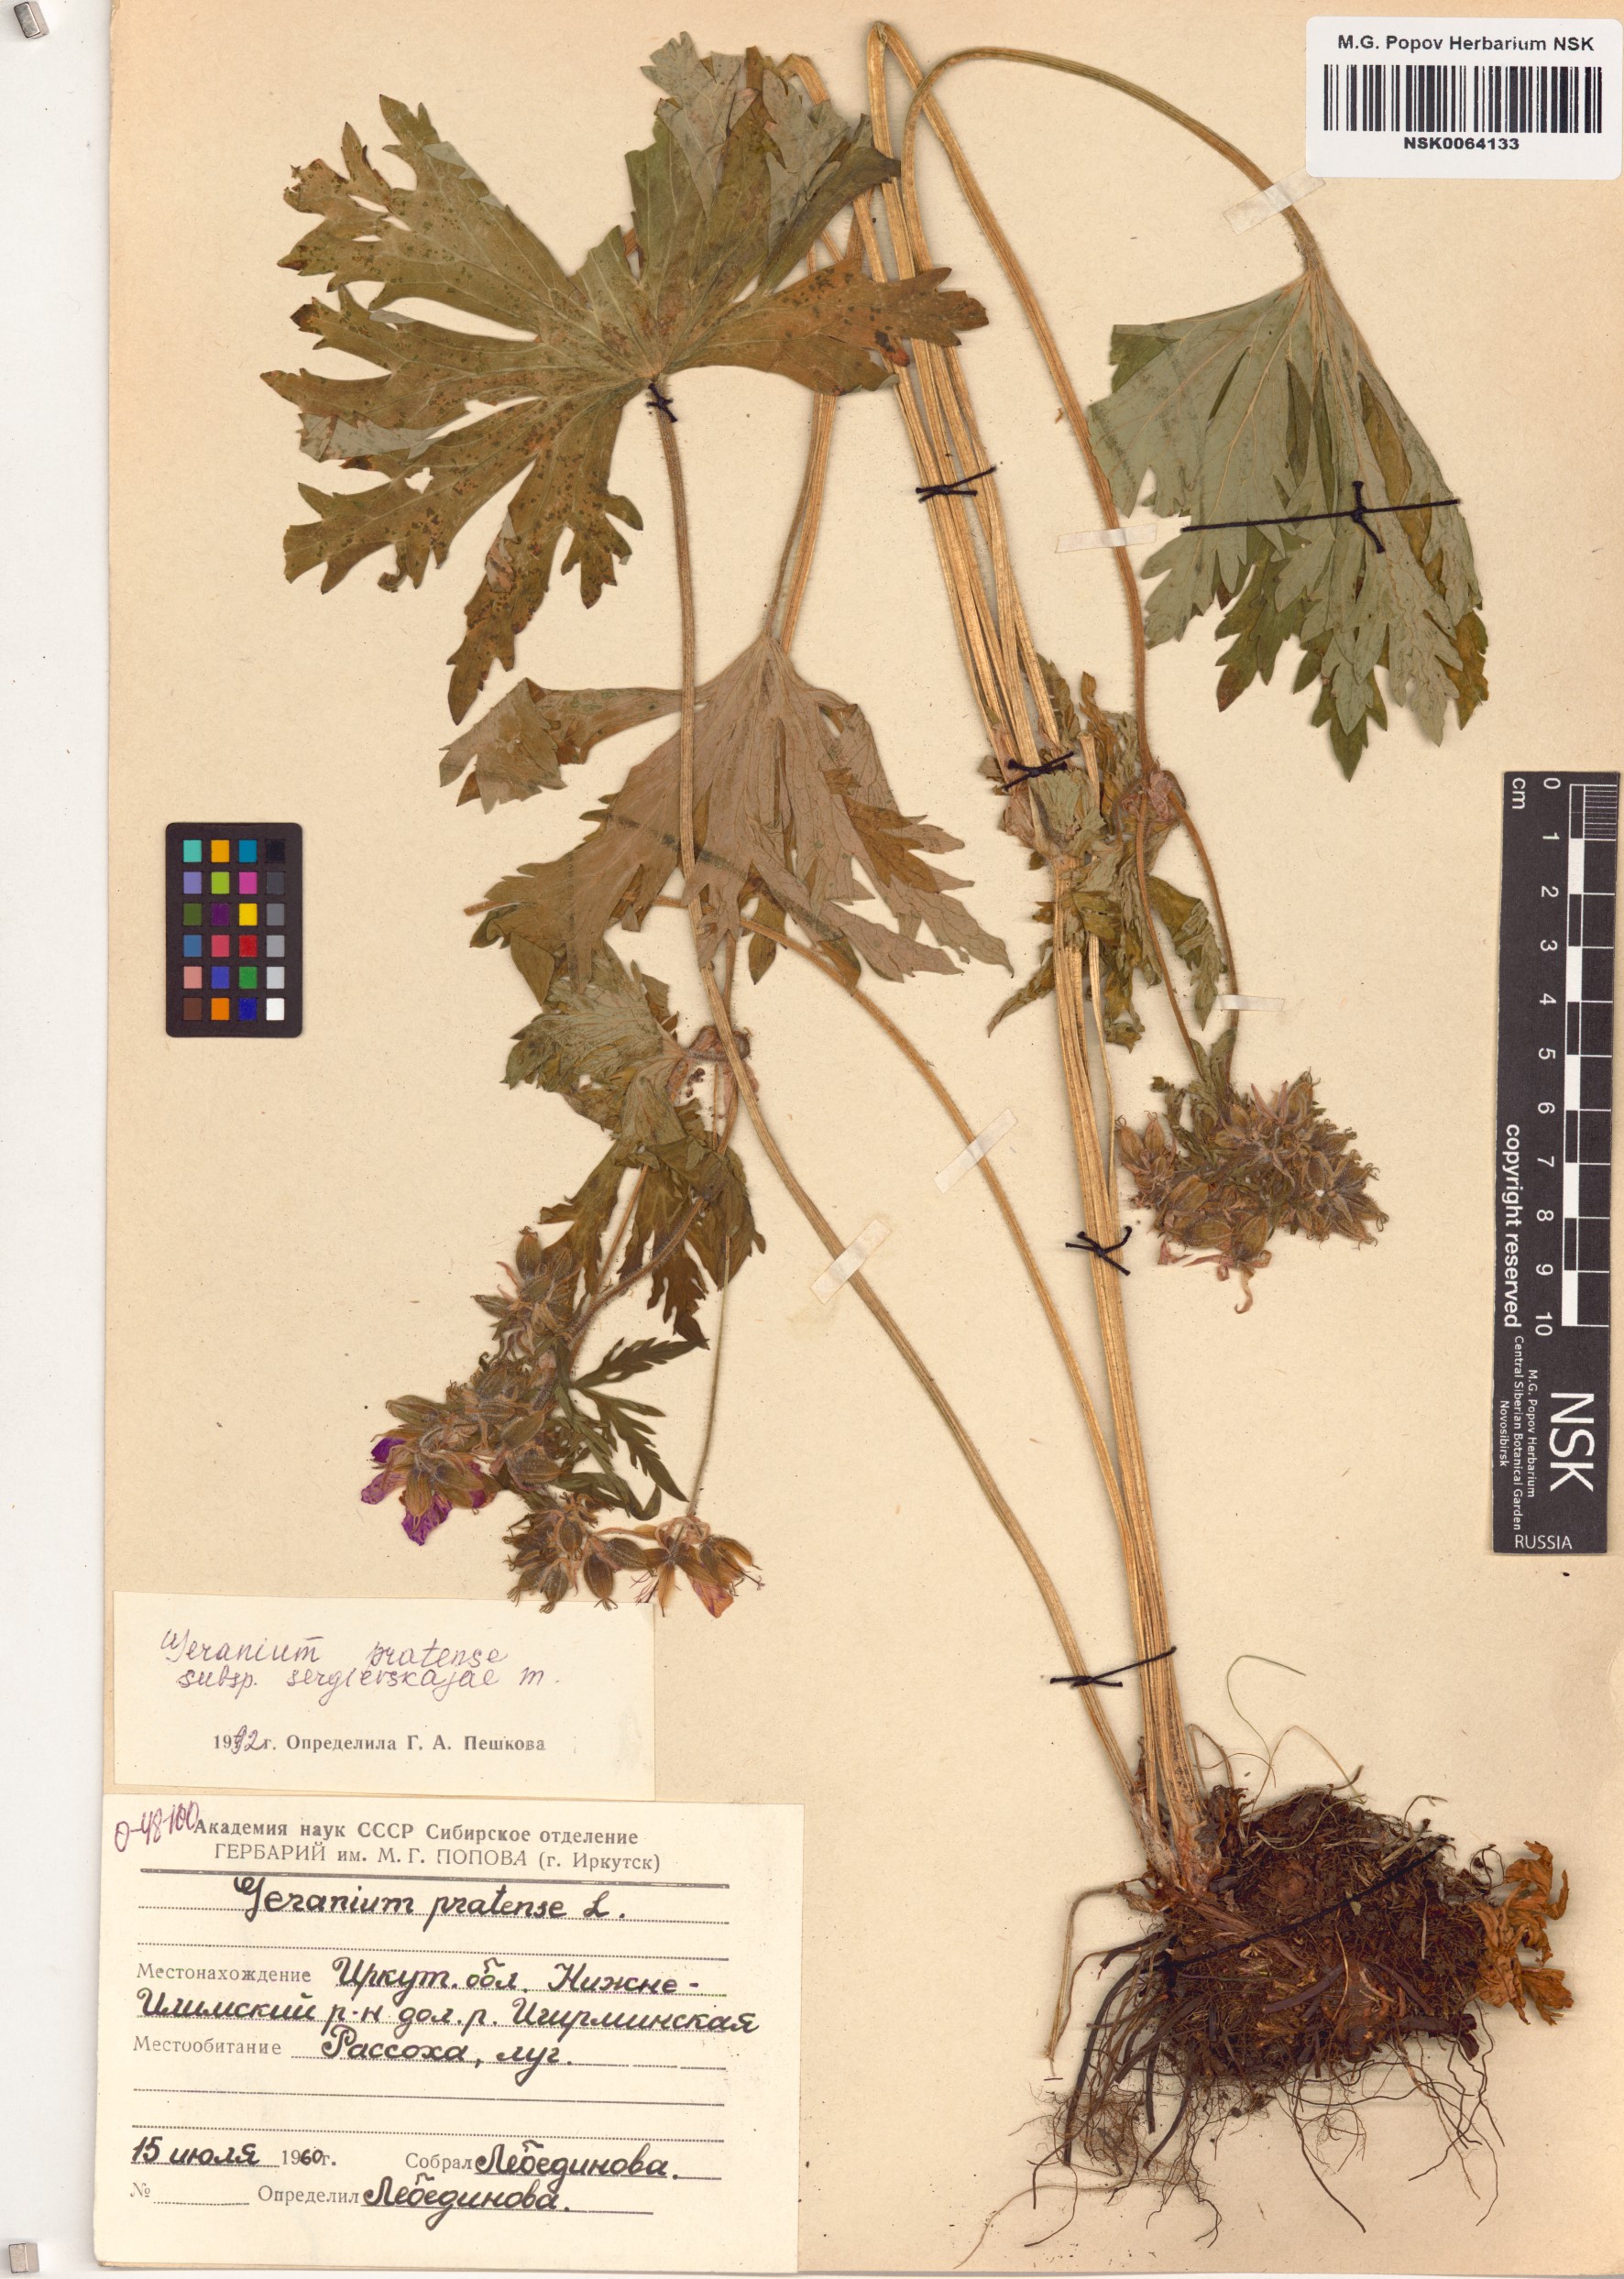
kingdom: Plantae
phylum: Tracheophyta
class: Magnoliopsida
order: Geraniales
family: Geraniaceae
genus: Geranium
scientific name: Geranium pratense
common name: Meadow crane's-bill
